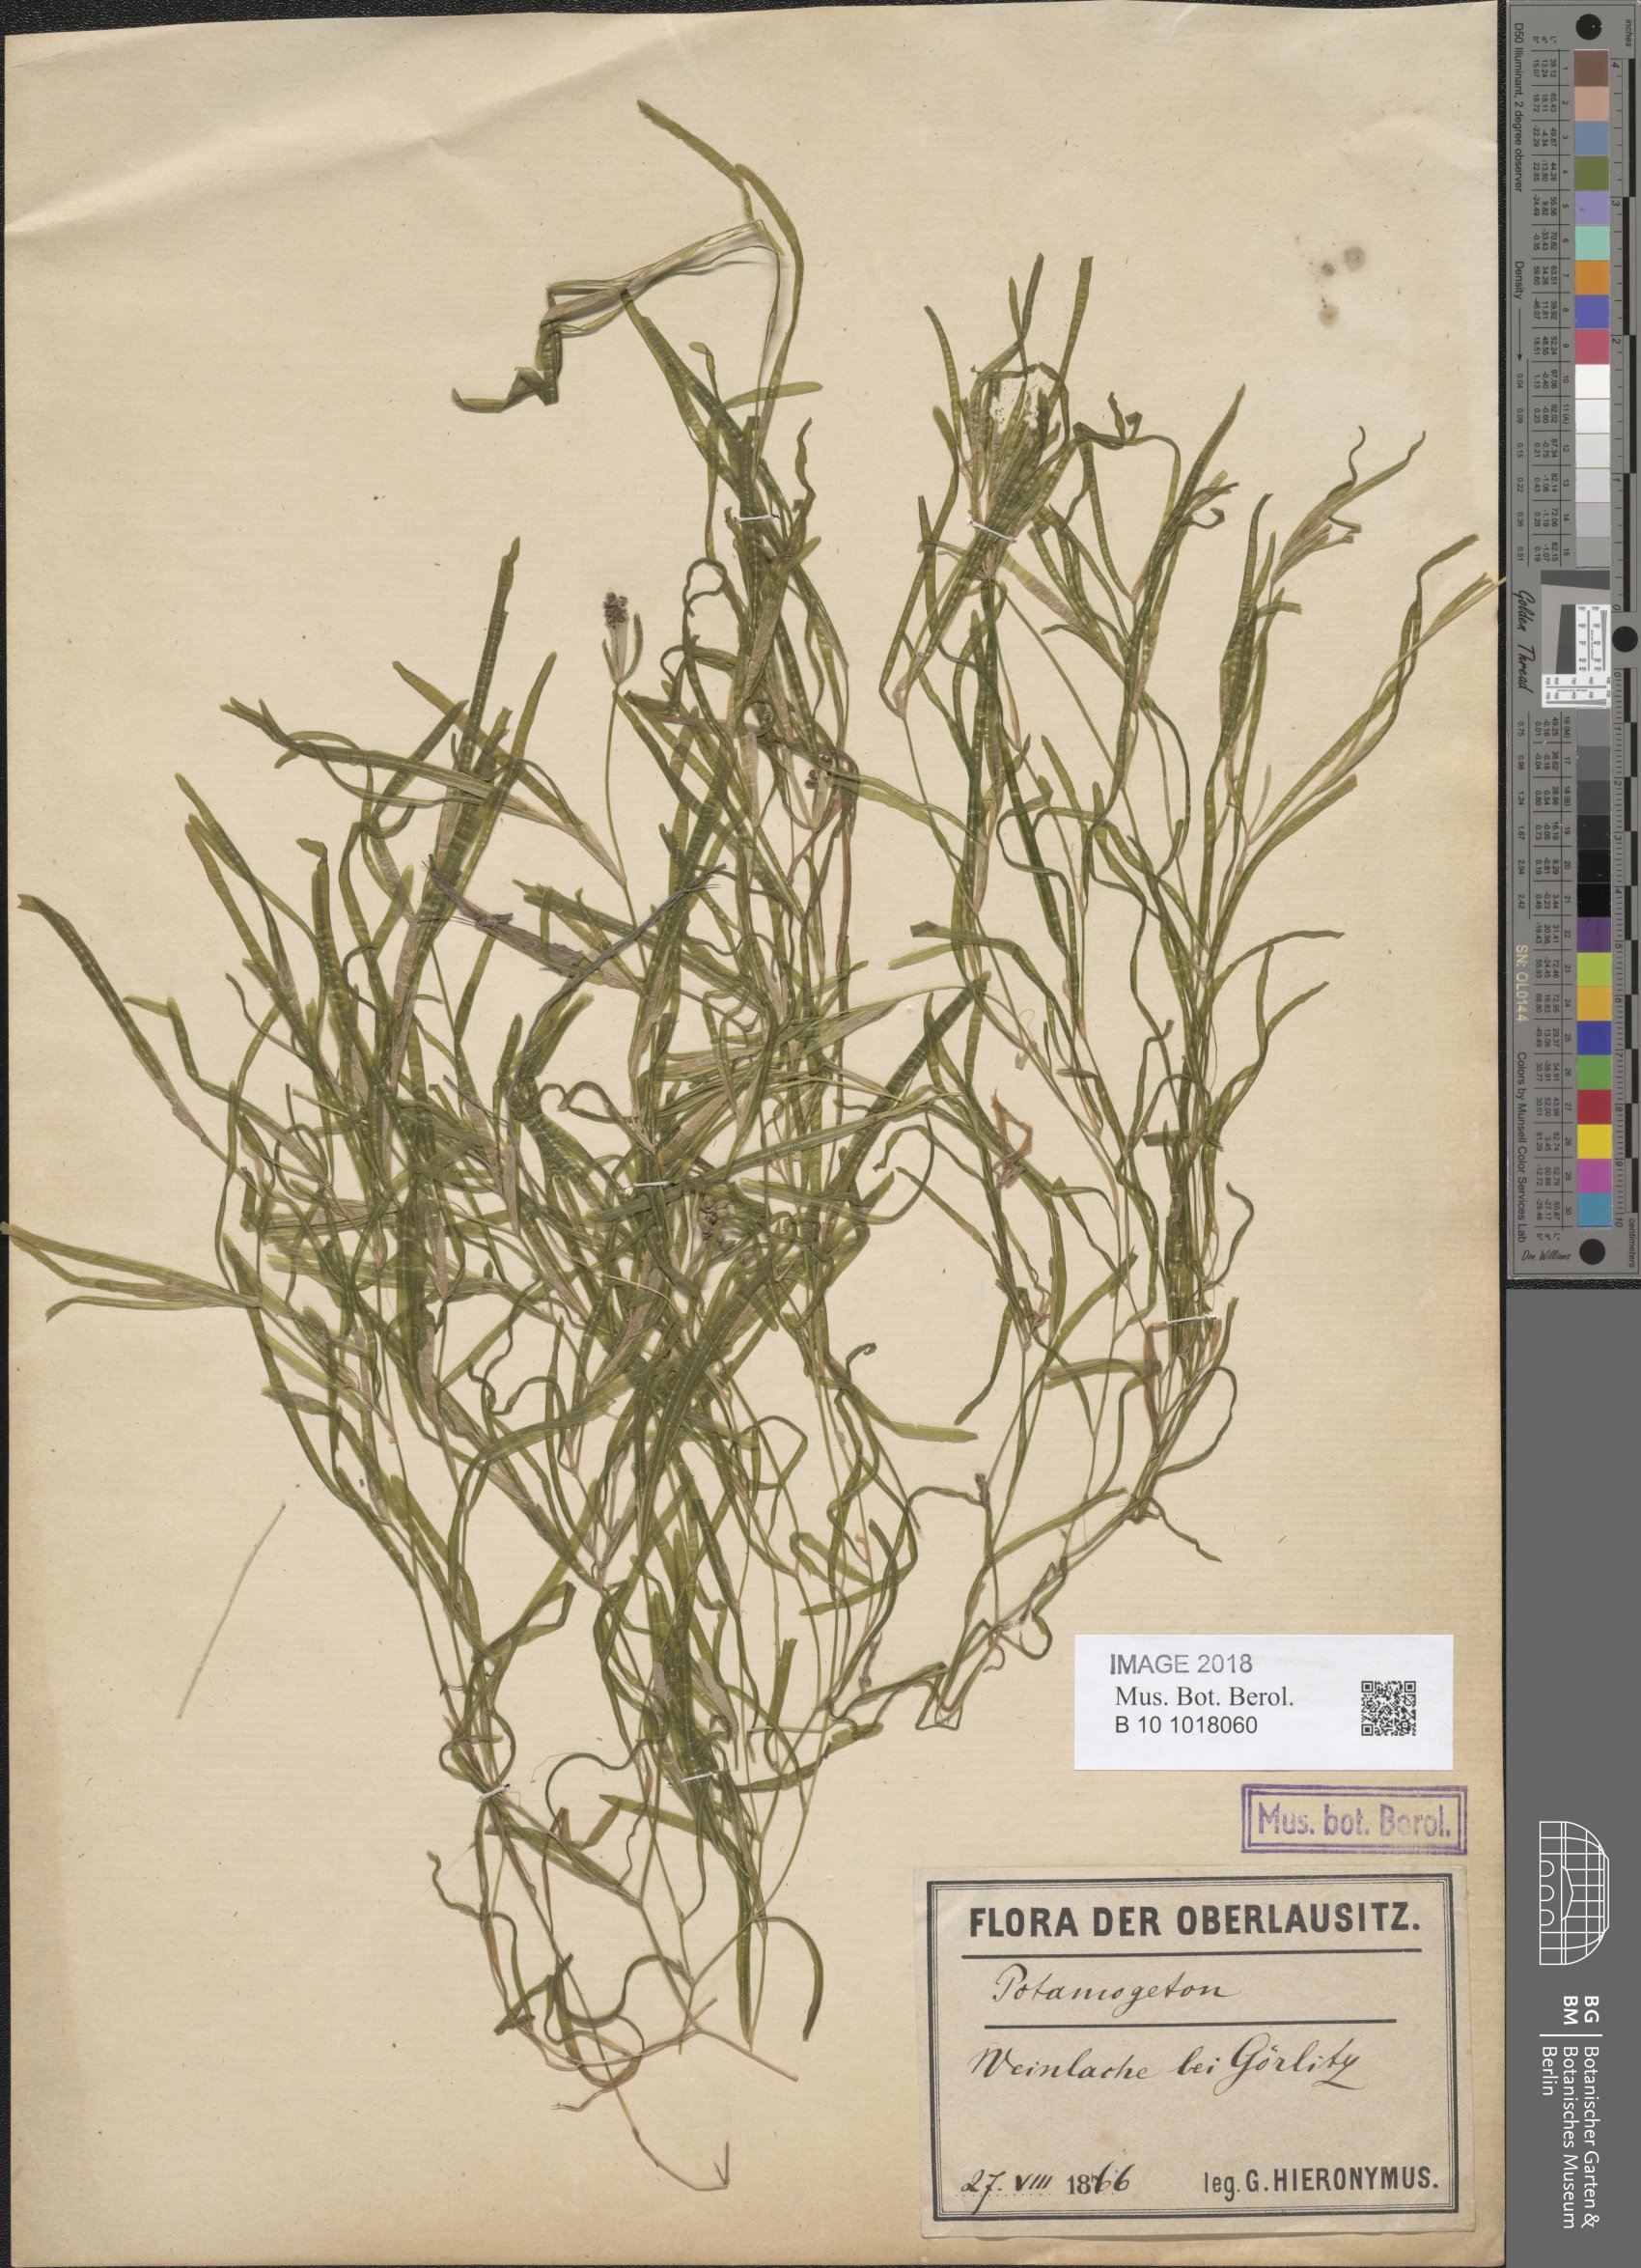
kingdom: Plantae
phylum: Tracheophyta
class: Liliopsida
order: Alismatales
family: Potamogetonaceae
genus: Potamogeton
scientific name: Potamogeton obtusifolius
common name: Blunt-leaved pondweed
